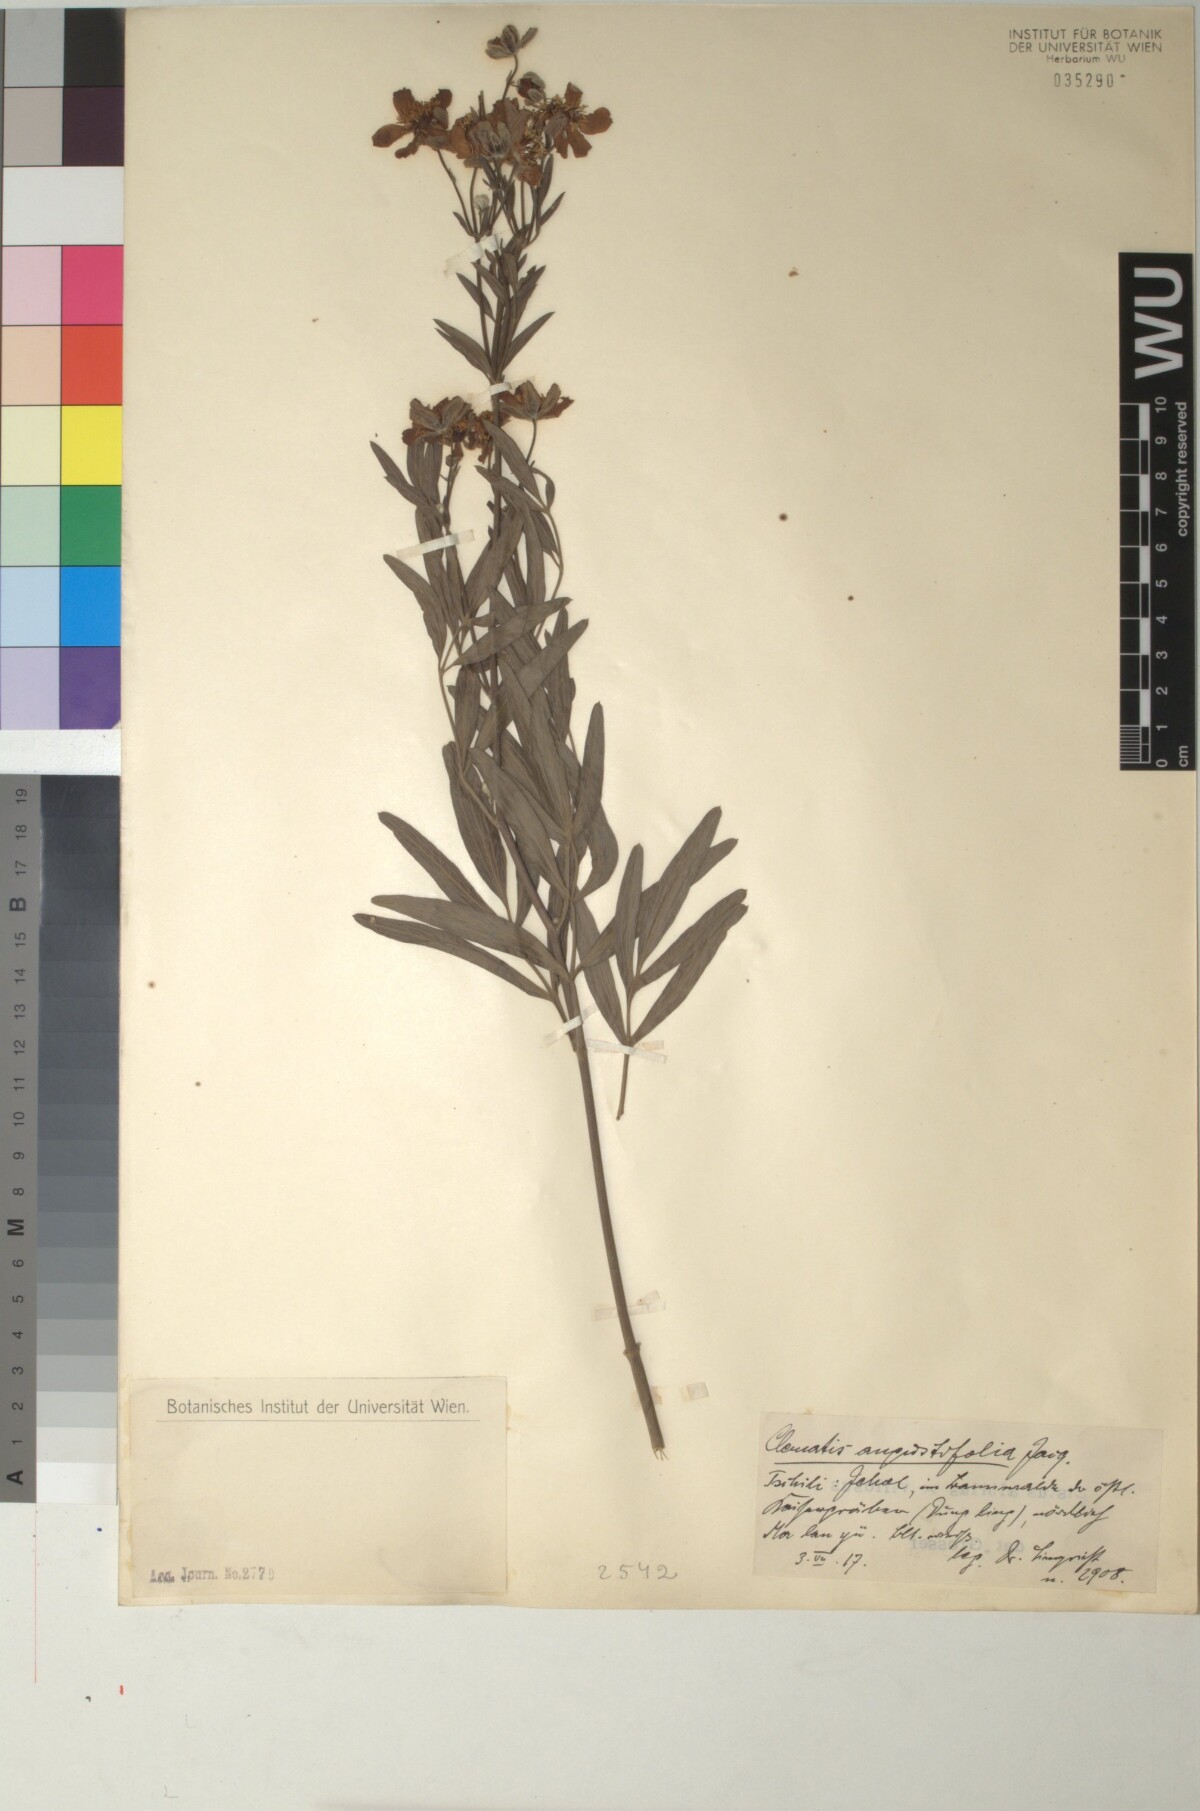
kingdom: Plantae
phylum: Tracheophyta
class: Magnoliopsida
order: Ranunculales
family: Ranunculaceae
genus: Clematis
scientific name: Clematis hexapetala
